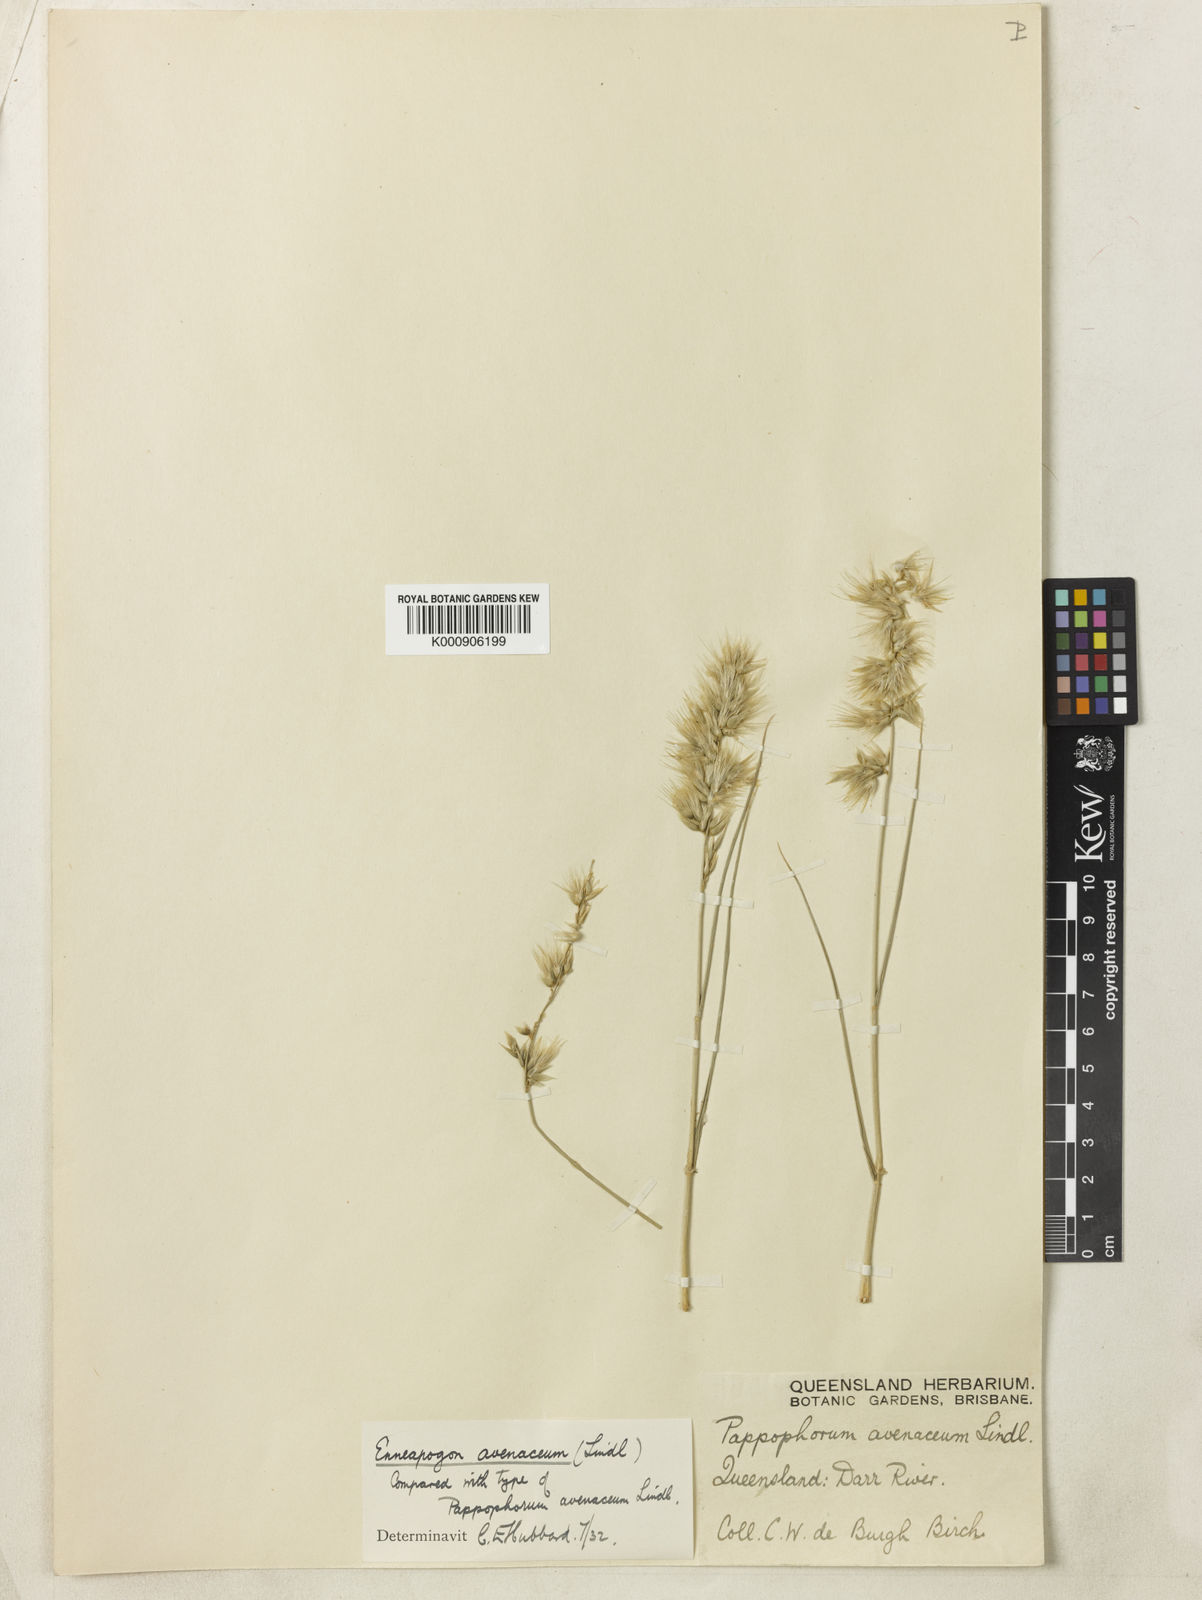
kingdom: Plantae
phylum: Tracheophyta
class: Liliopsida
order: Poales
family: Poaceae
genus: Enneapogon
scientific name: Enneapogon avenaceus
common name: Hairy oat grass
